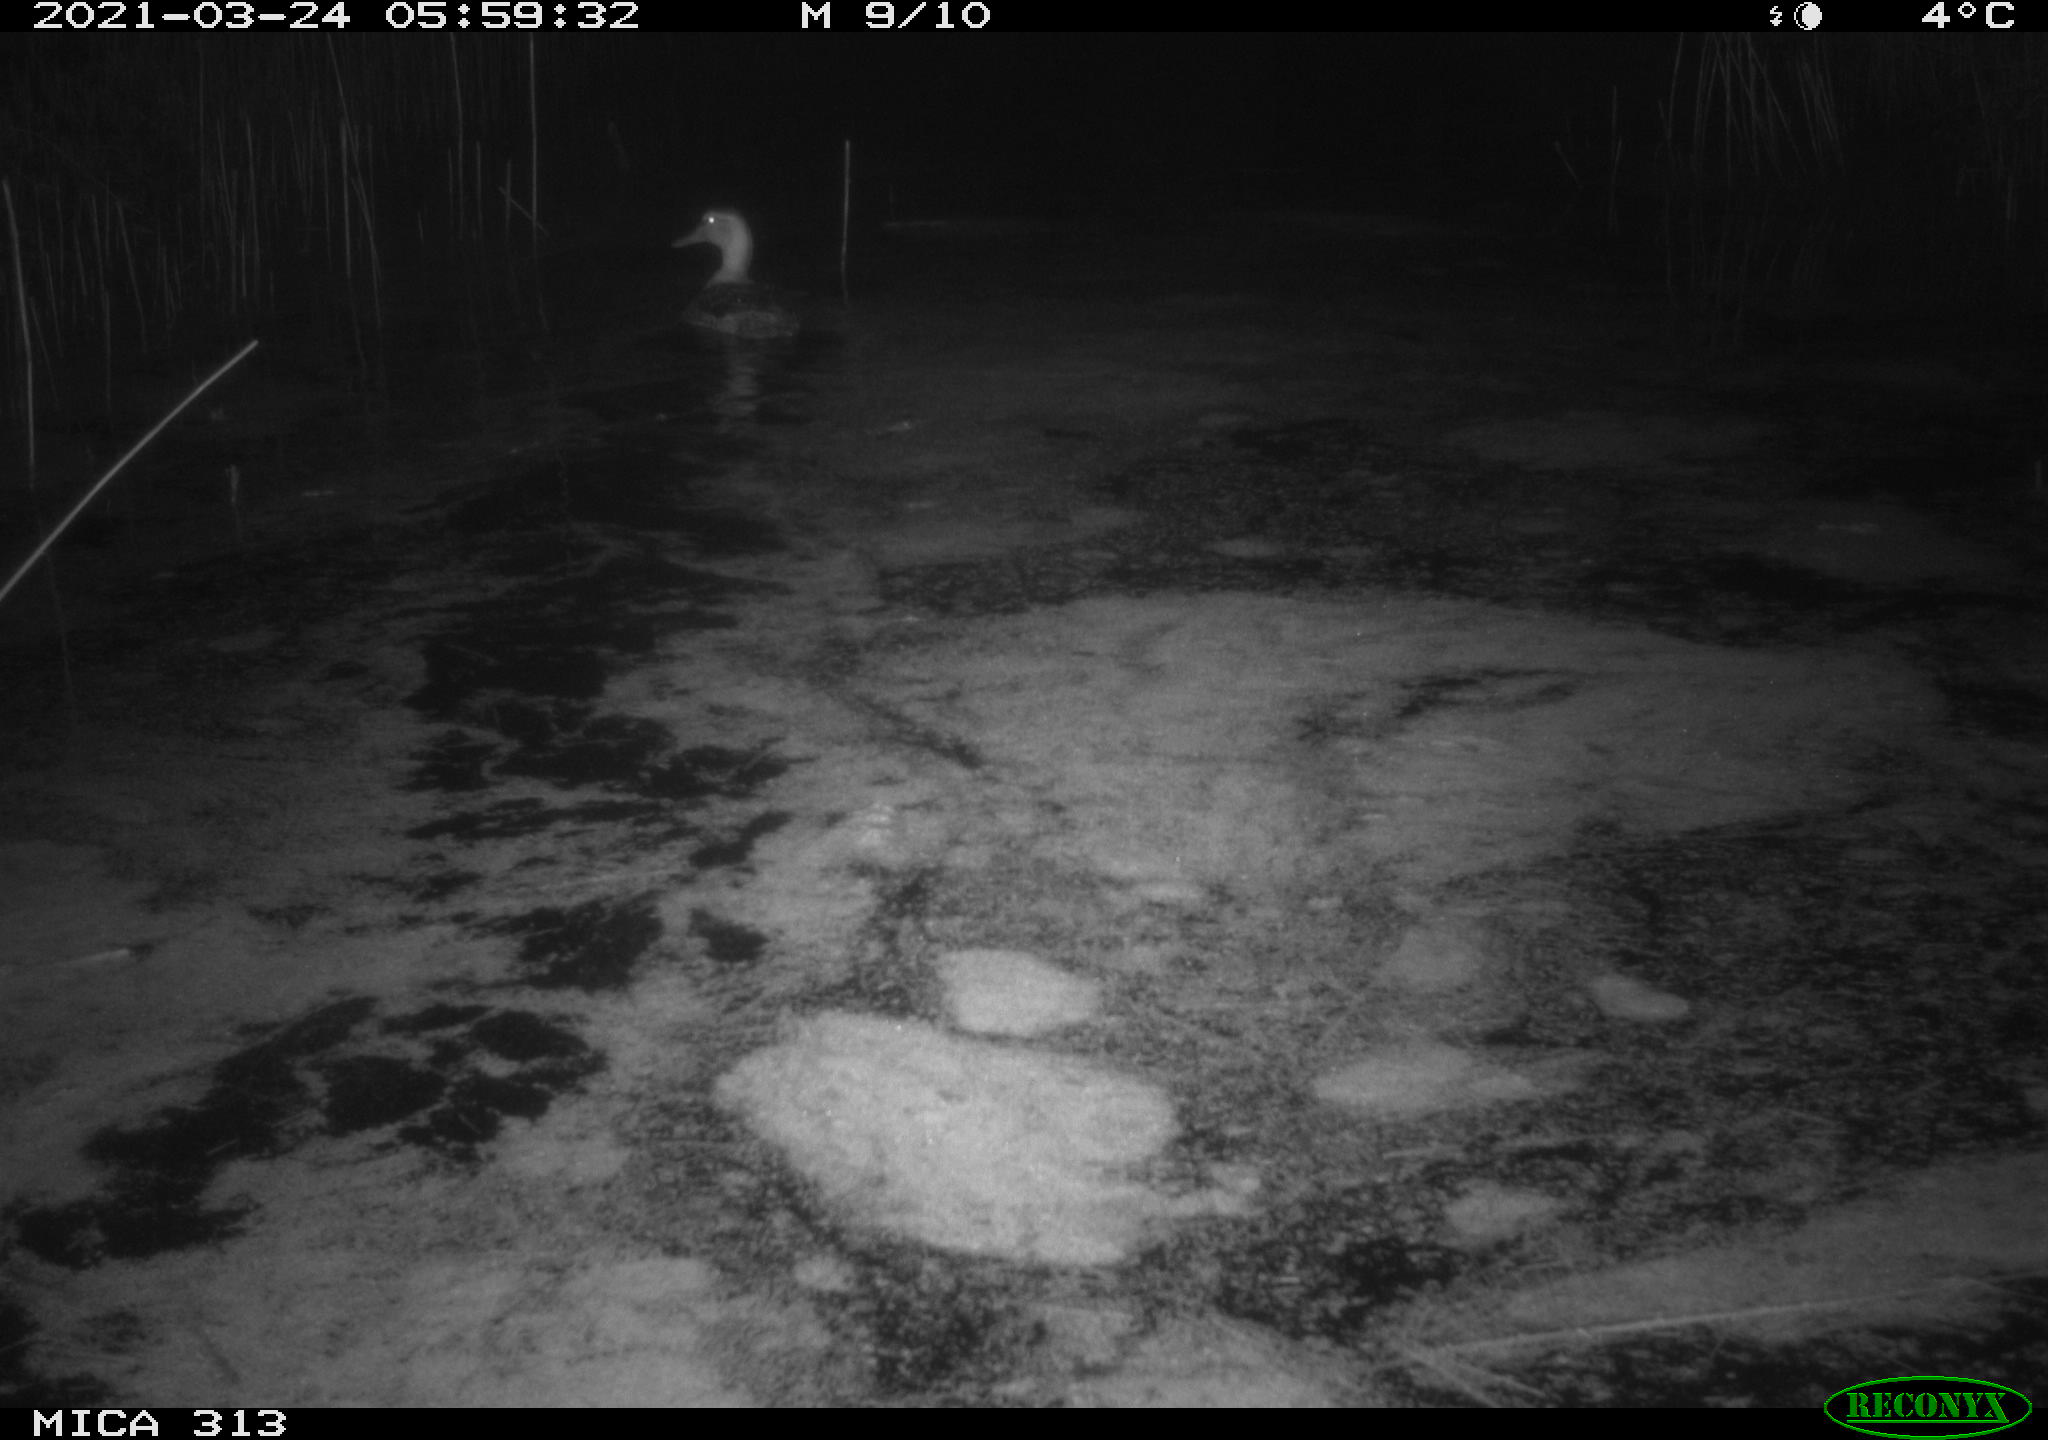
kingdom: Animalia
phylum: Chordata
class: Aves
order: Anseriformes
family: Anatidae
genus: Anas
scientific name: Anas platyrhynchos
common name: Mallard
